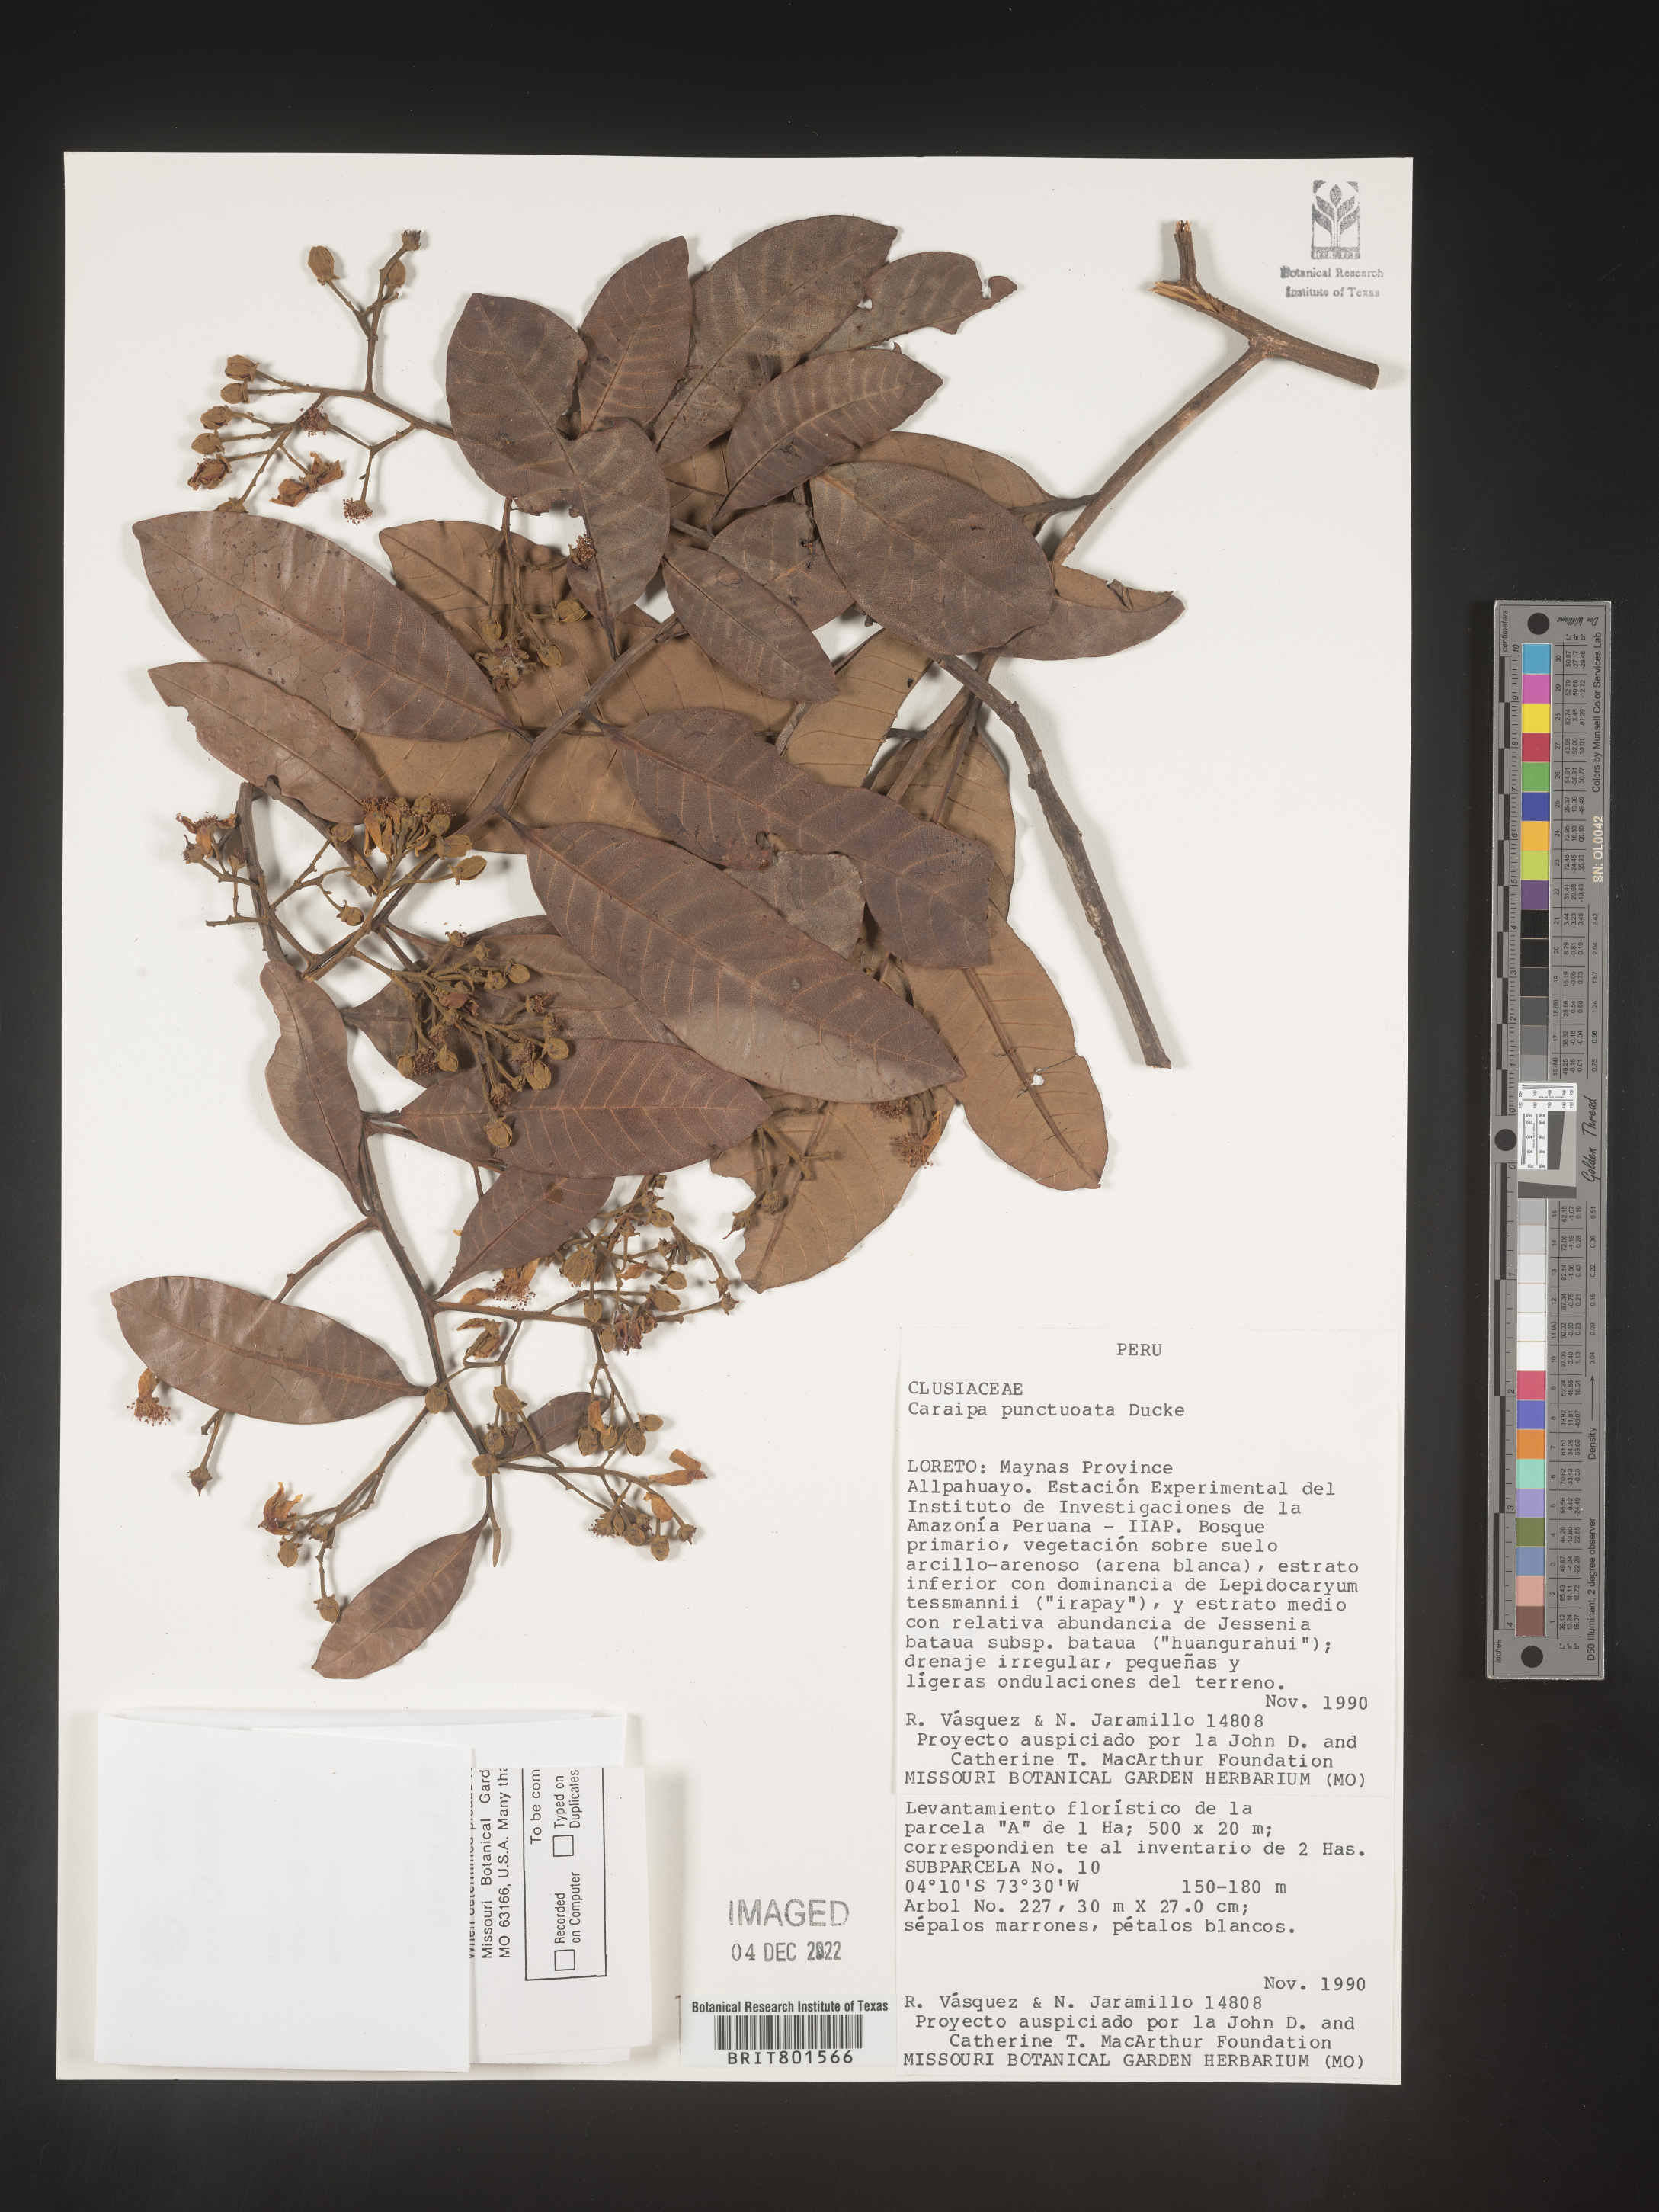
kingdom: Plantae
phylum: Tracheophyta
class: Magnoliopsida
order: Malpighiales
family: Calophyllaceae
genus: Caraipa
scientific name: Caraipa
